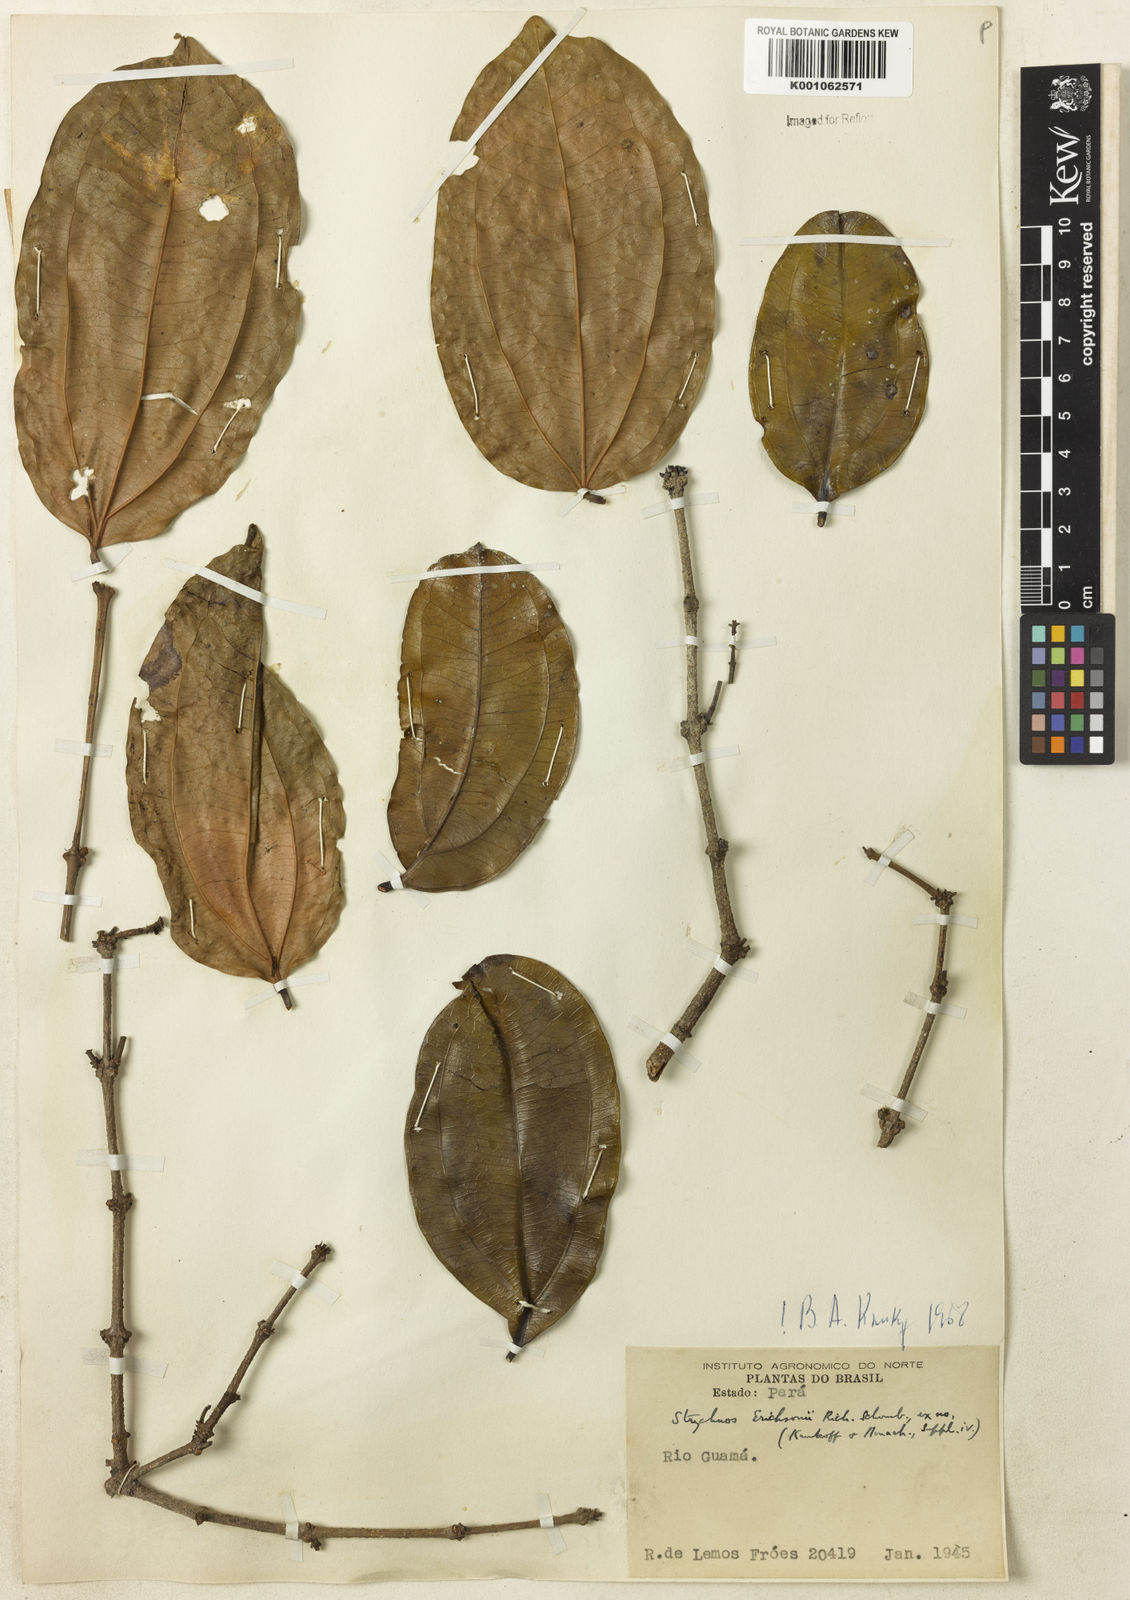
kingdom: Plantae
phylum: Tracheophyta
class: Magnoliopsida
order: Gentianales
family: Loganiaceae
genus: Strychnos
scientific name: Strychnos erichsonii
